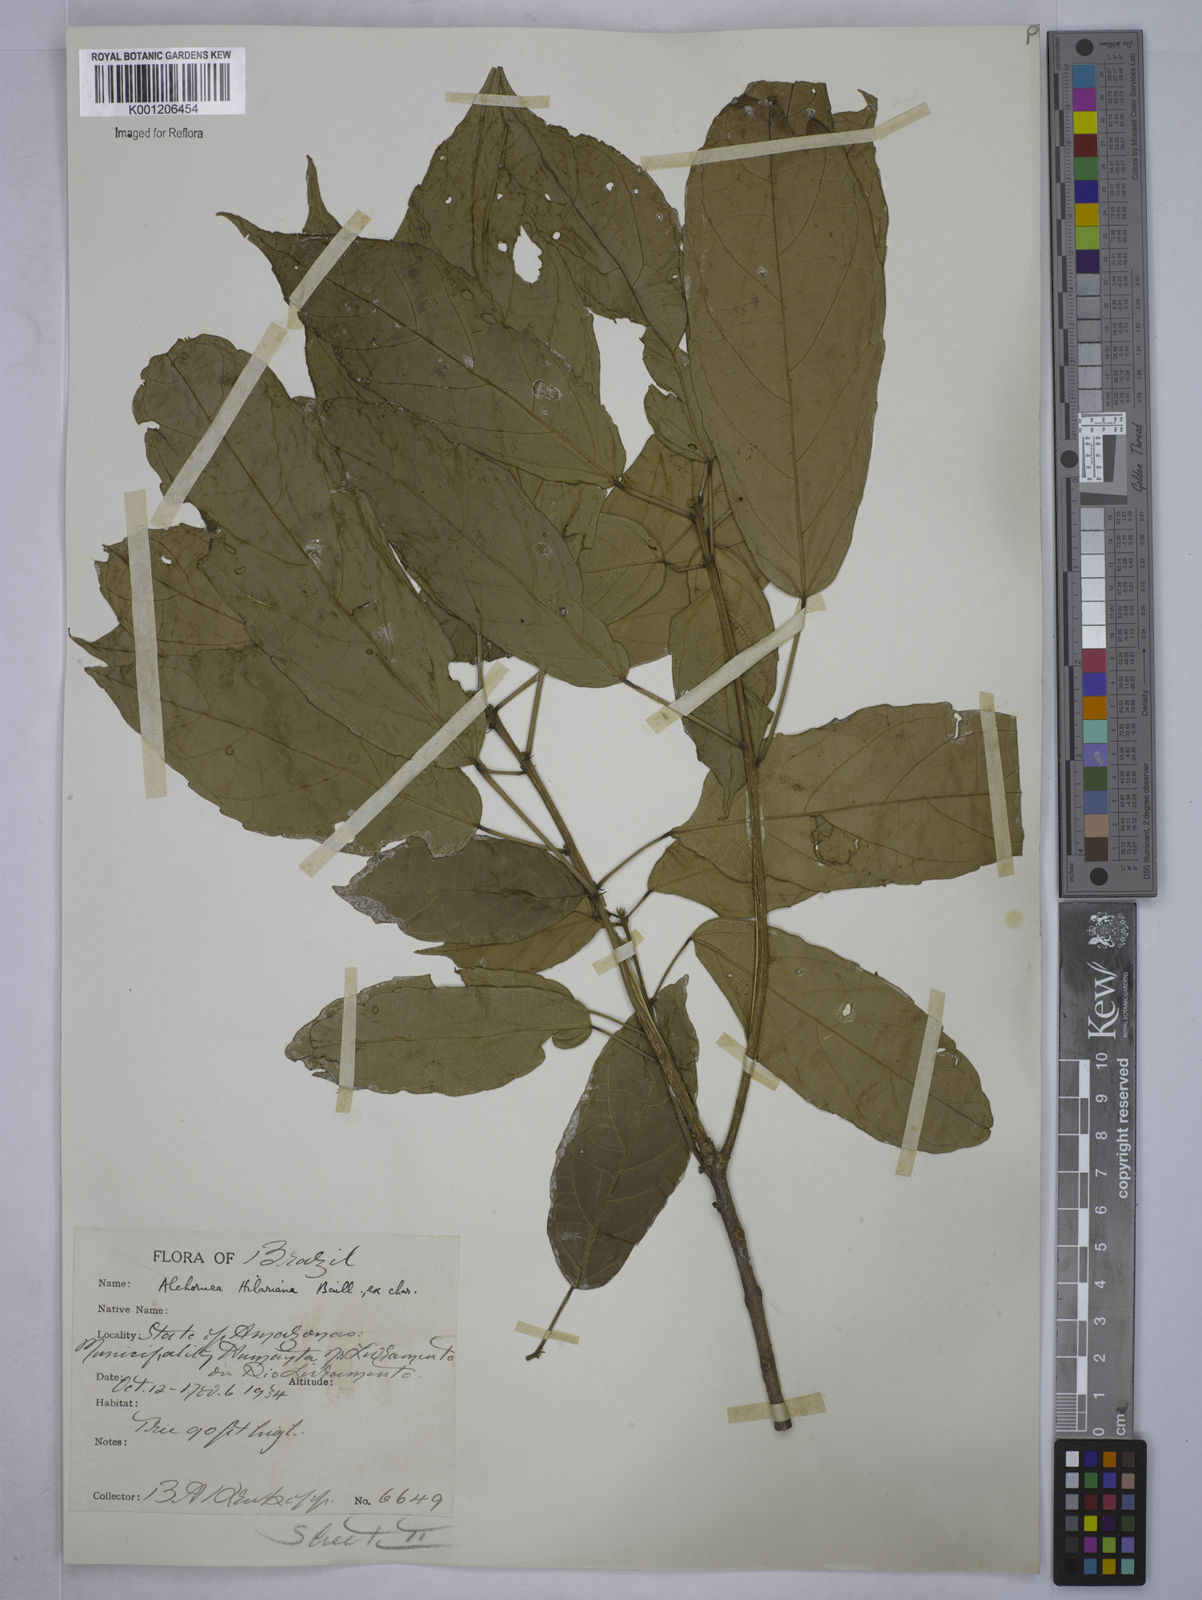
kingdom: Plantae
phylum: Tracheophyta
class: Magnoliopsida
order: Malpighiales
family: Euphorbiaceae
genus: Conceveiba
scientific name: Conceveiba praealta
